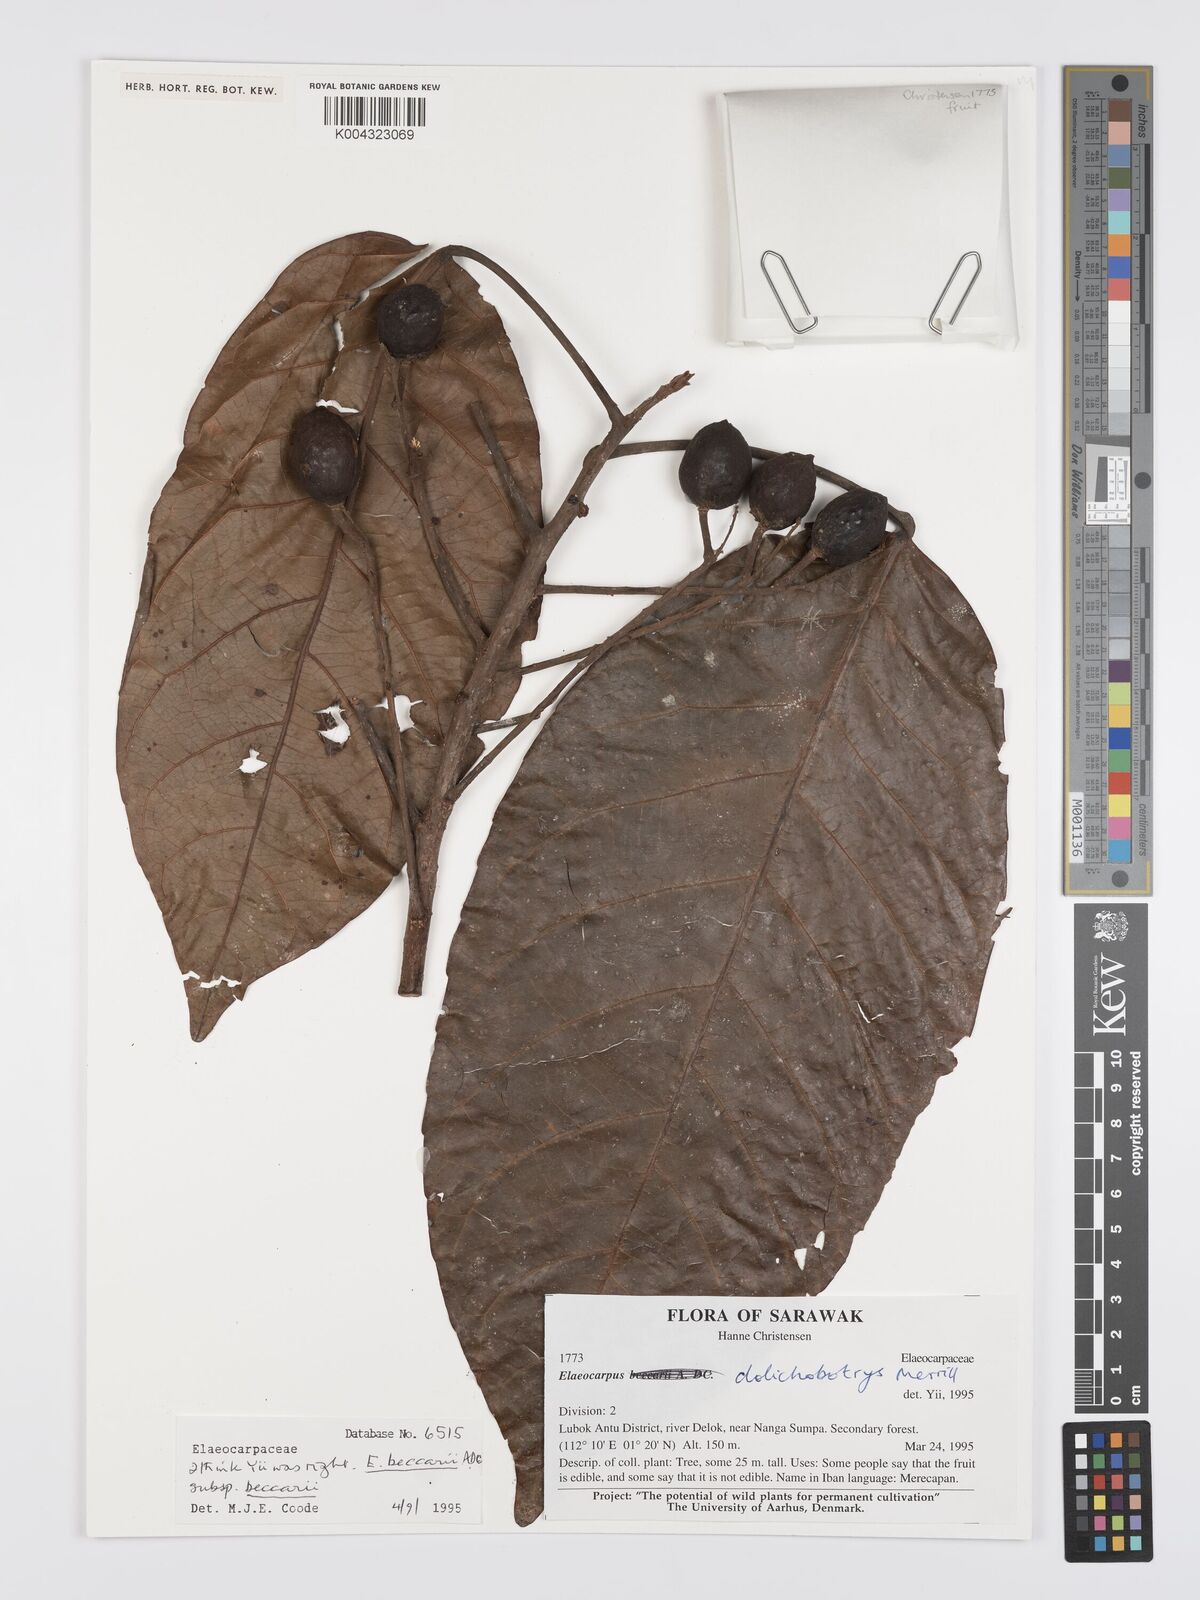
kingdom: Plantae
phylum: Tracheophyta
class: Magnoliopsida
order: Oxalidales
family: Elaeocarpaceae
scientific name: Elaeocarpaceae
